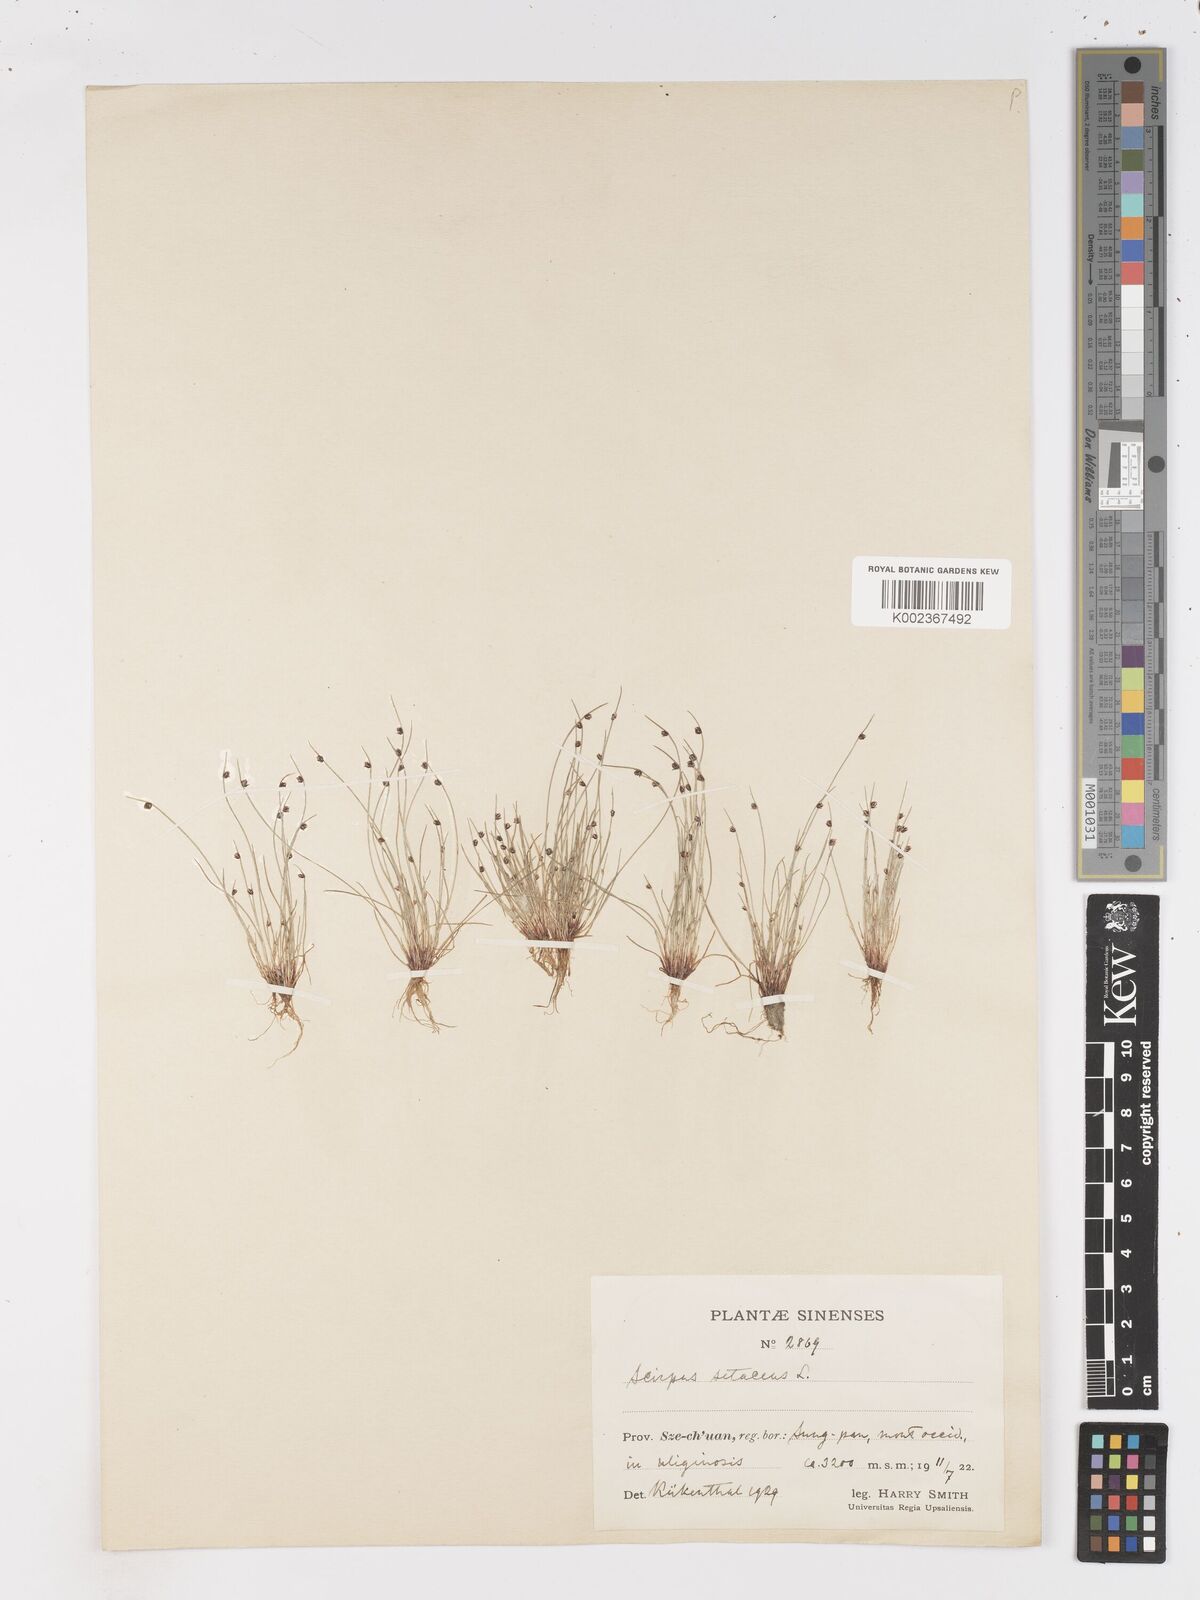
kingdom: Plantae
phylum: Tracheophyta
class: Liliopsida
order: Poales
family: Cyperaceae
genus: Isolepis
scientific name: Isolepis setacea
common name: Bristle club-rush
